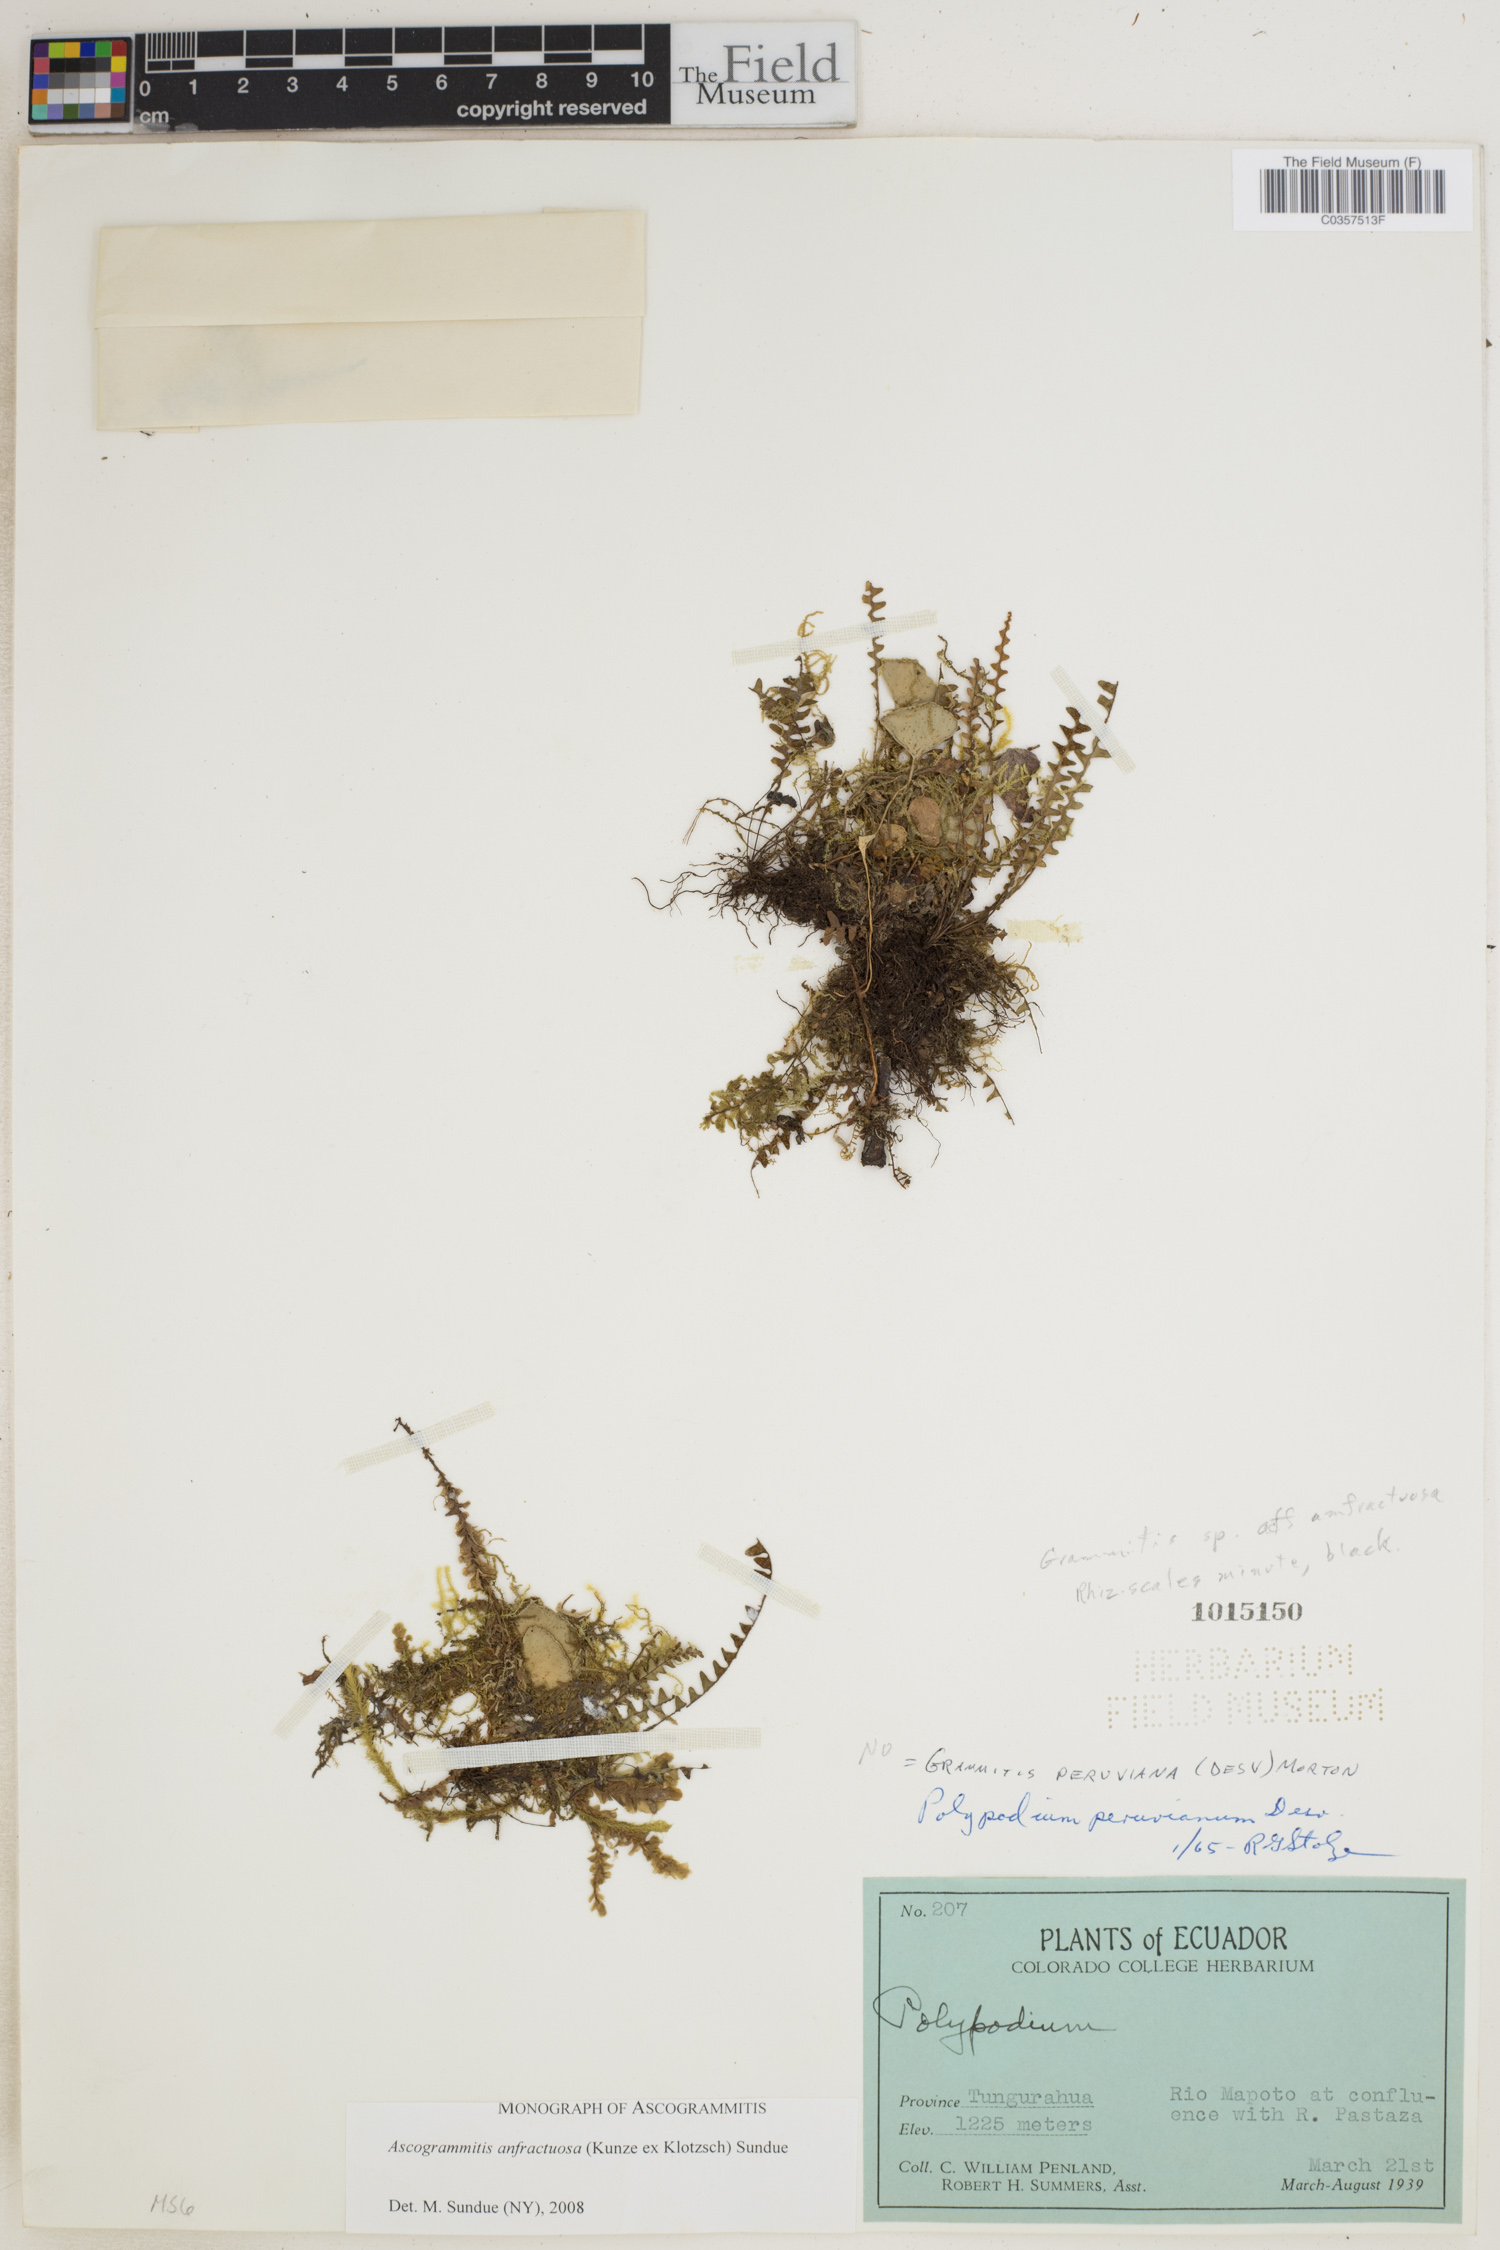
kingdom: Plantae
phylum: Tracheophyta
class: Polypodiopsida
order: Polypodiales
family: Polypodiaceae
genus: Ascogrammitis
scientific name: Ascogrammitis anfractuosa
